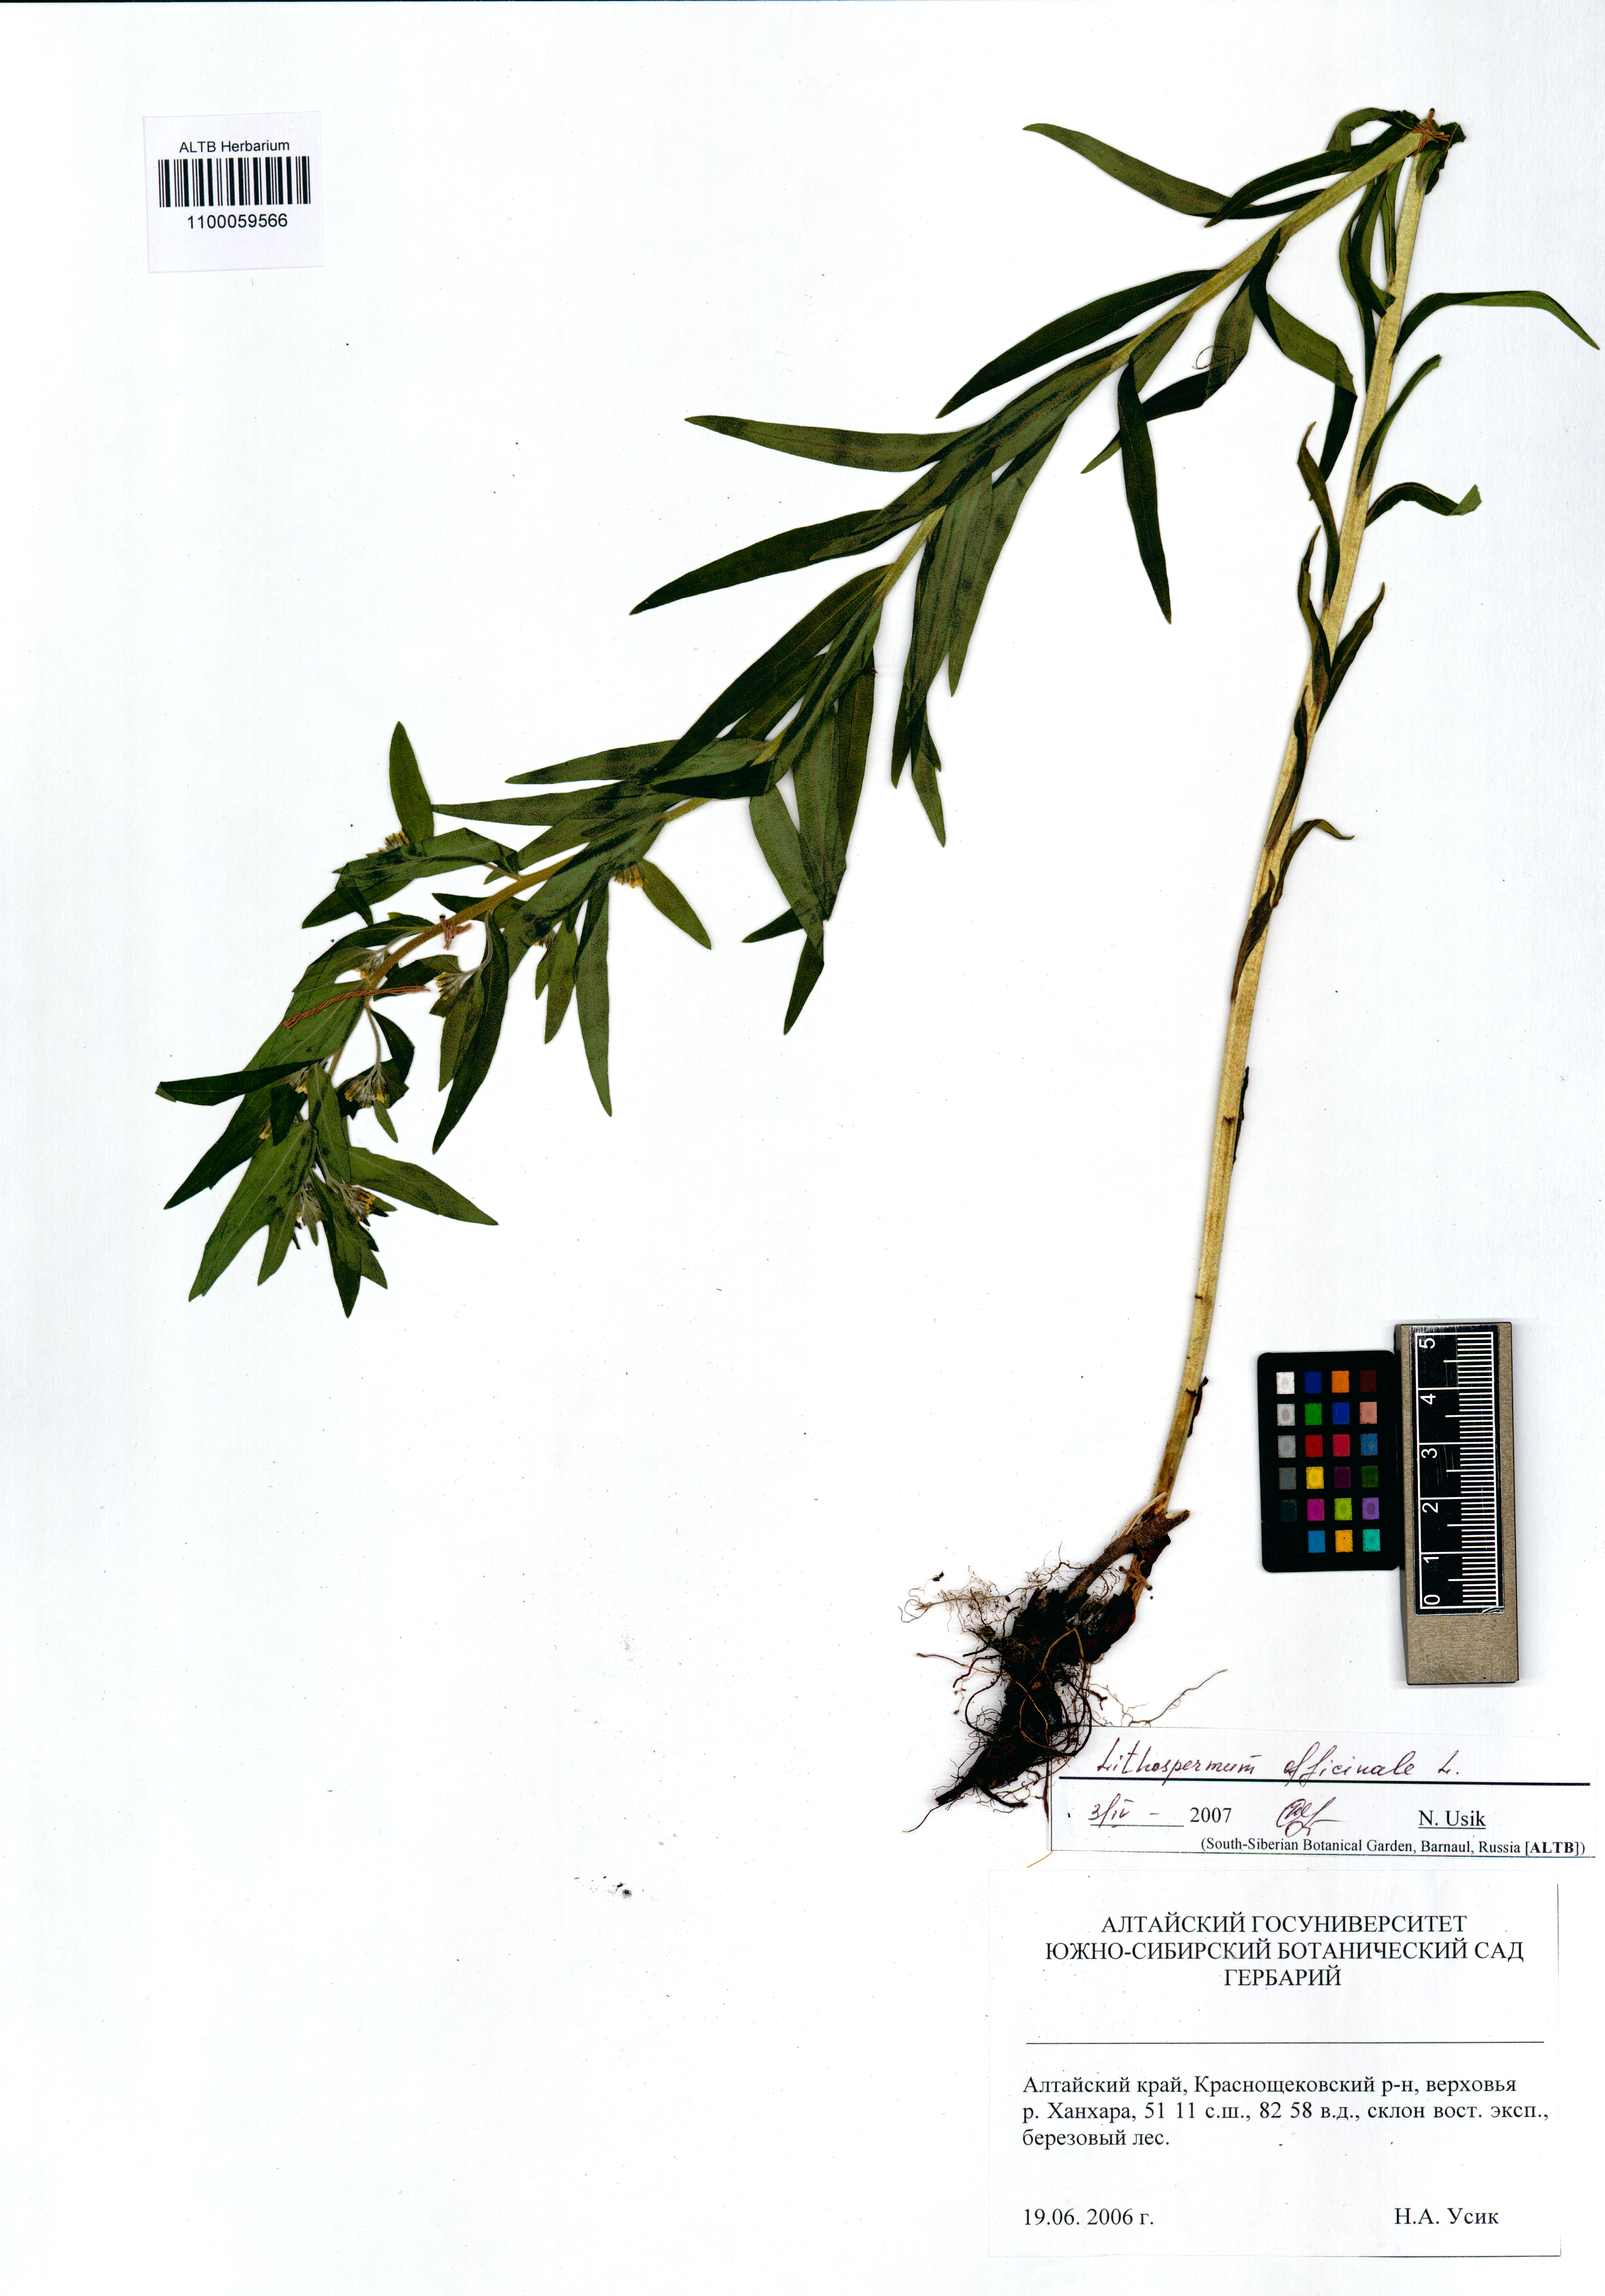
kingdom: Plantae
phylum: Tracheophyta
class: Magnoliopsida
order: Boraginales
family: Boraginaceae
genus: Lithospermum
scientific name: Lithospermum officinale
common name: Common gromwell
